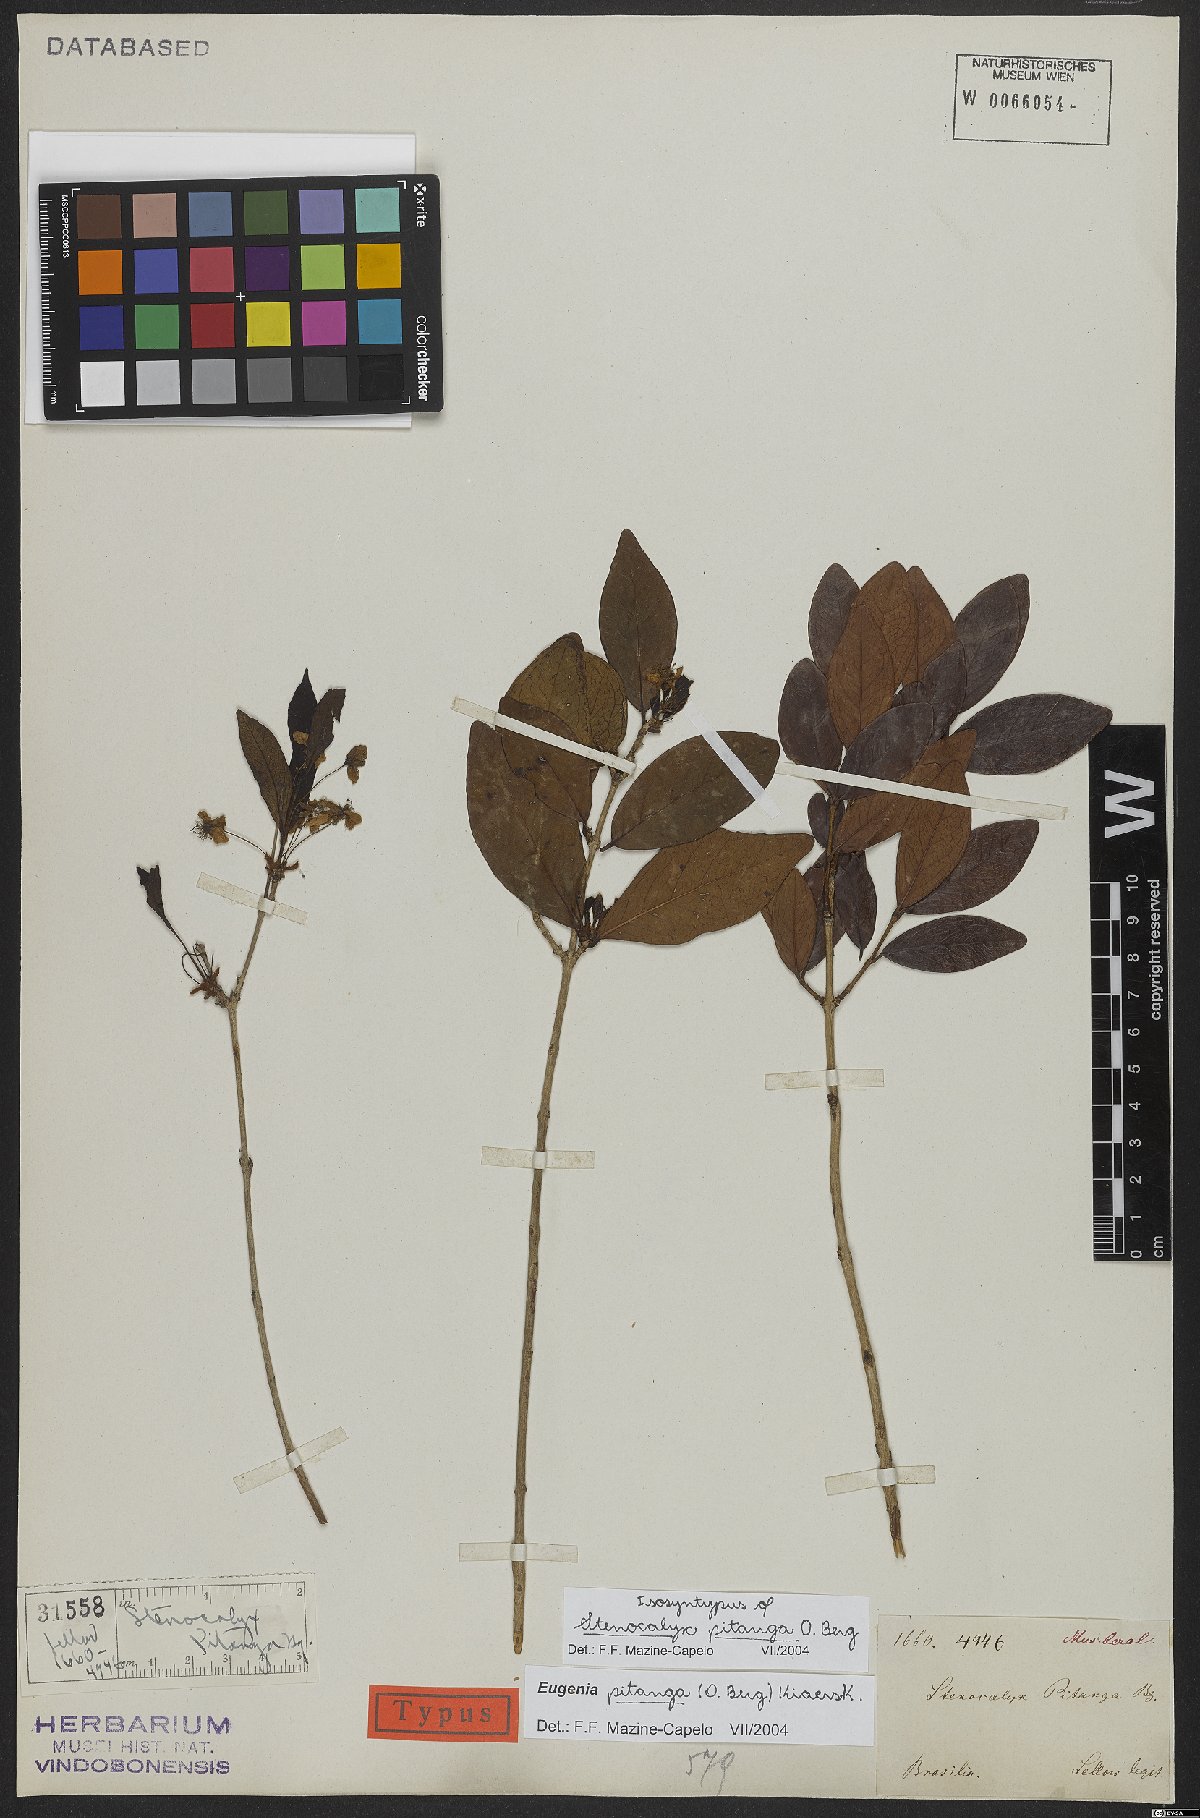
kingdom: Plantae
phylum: Tracheophyta
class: Magnoliopsida
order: Myrtales
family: Myrtaceae
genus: Eugenia
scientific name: Eugenia pitanga
